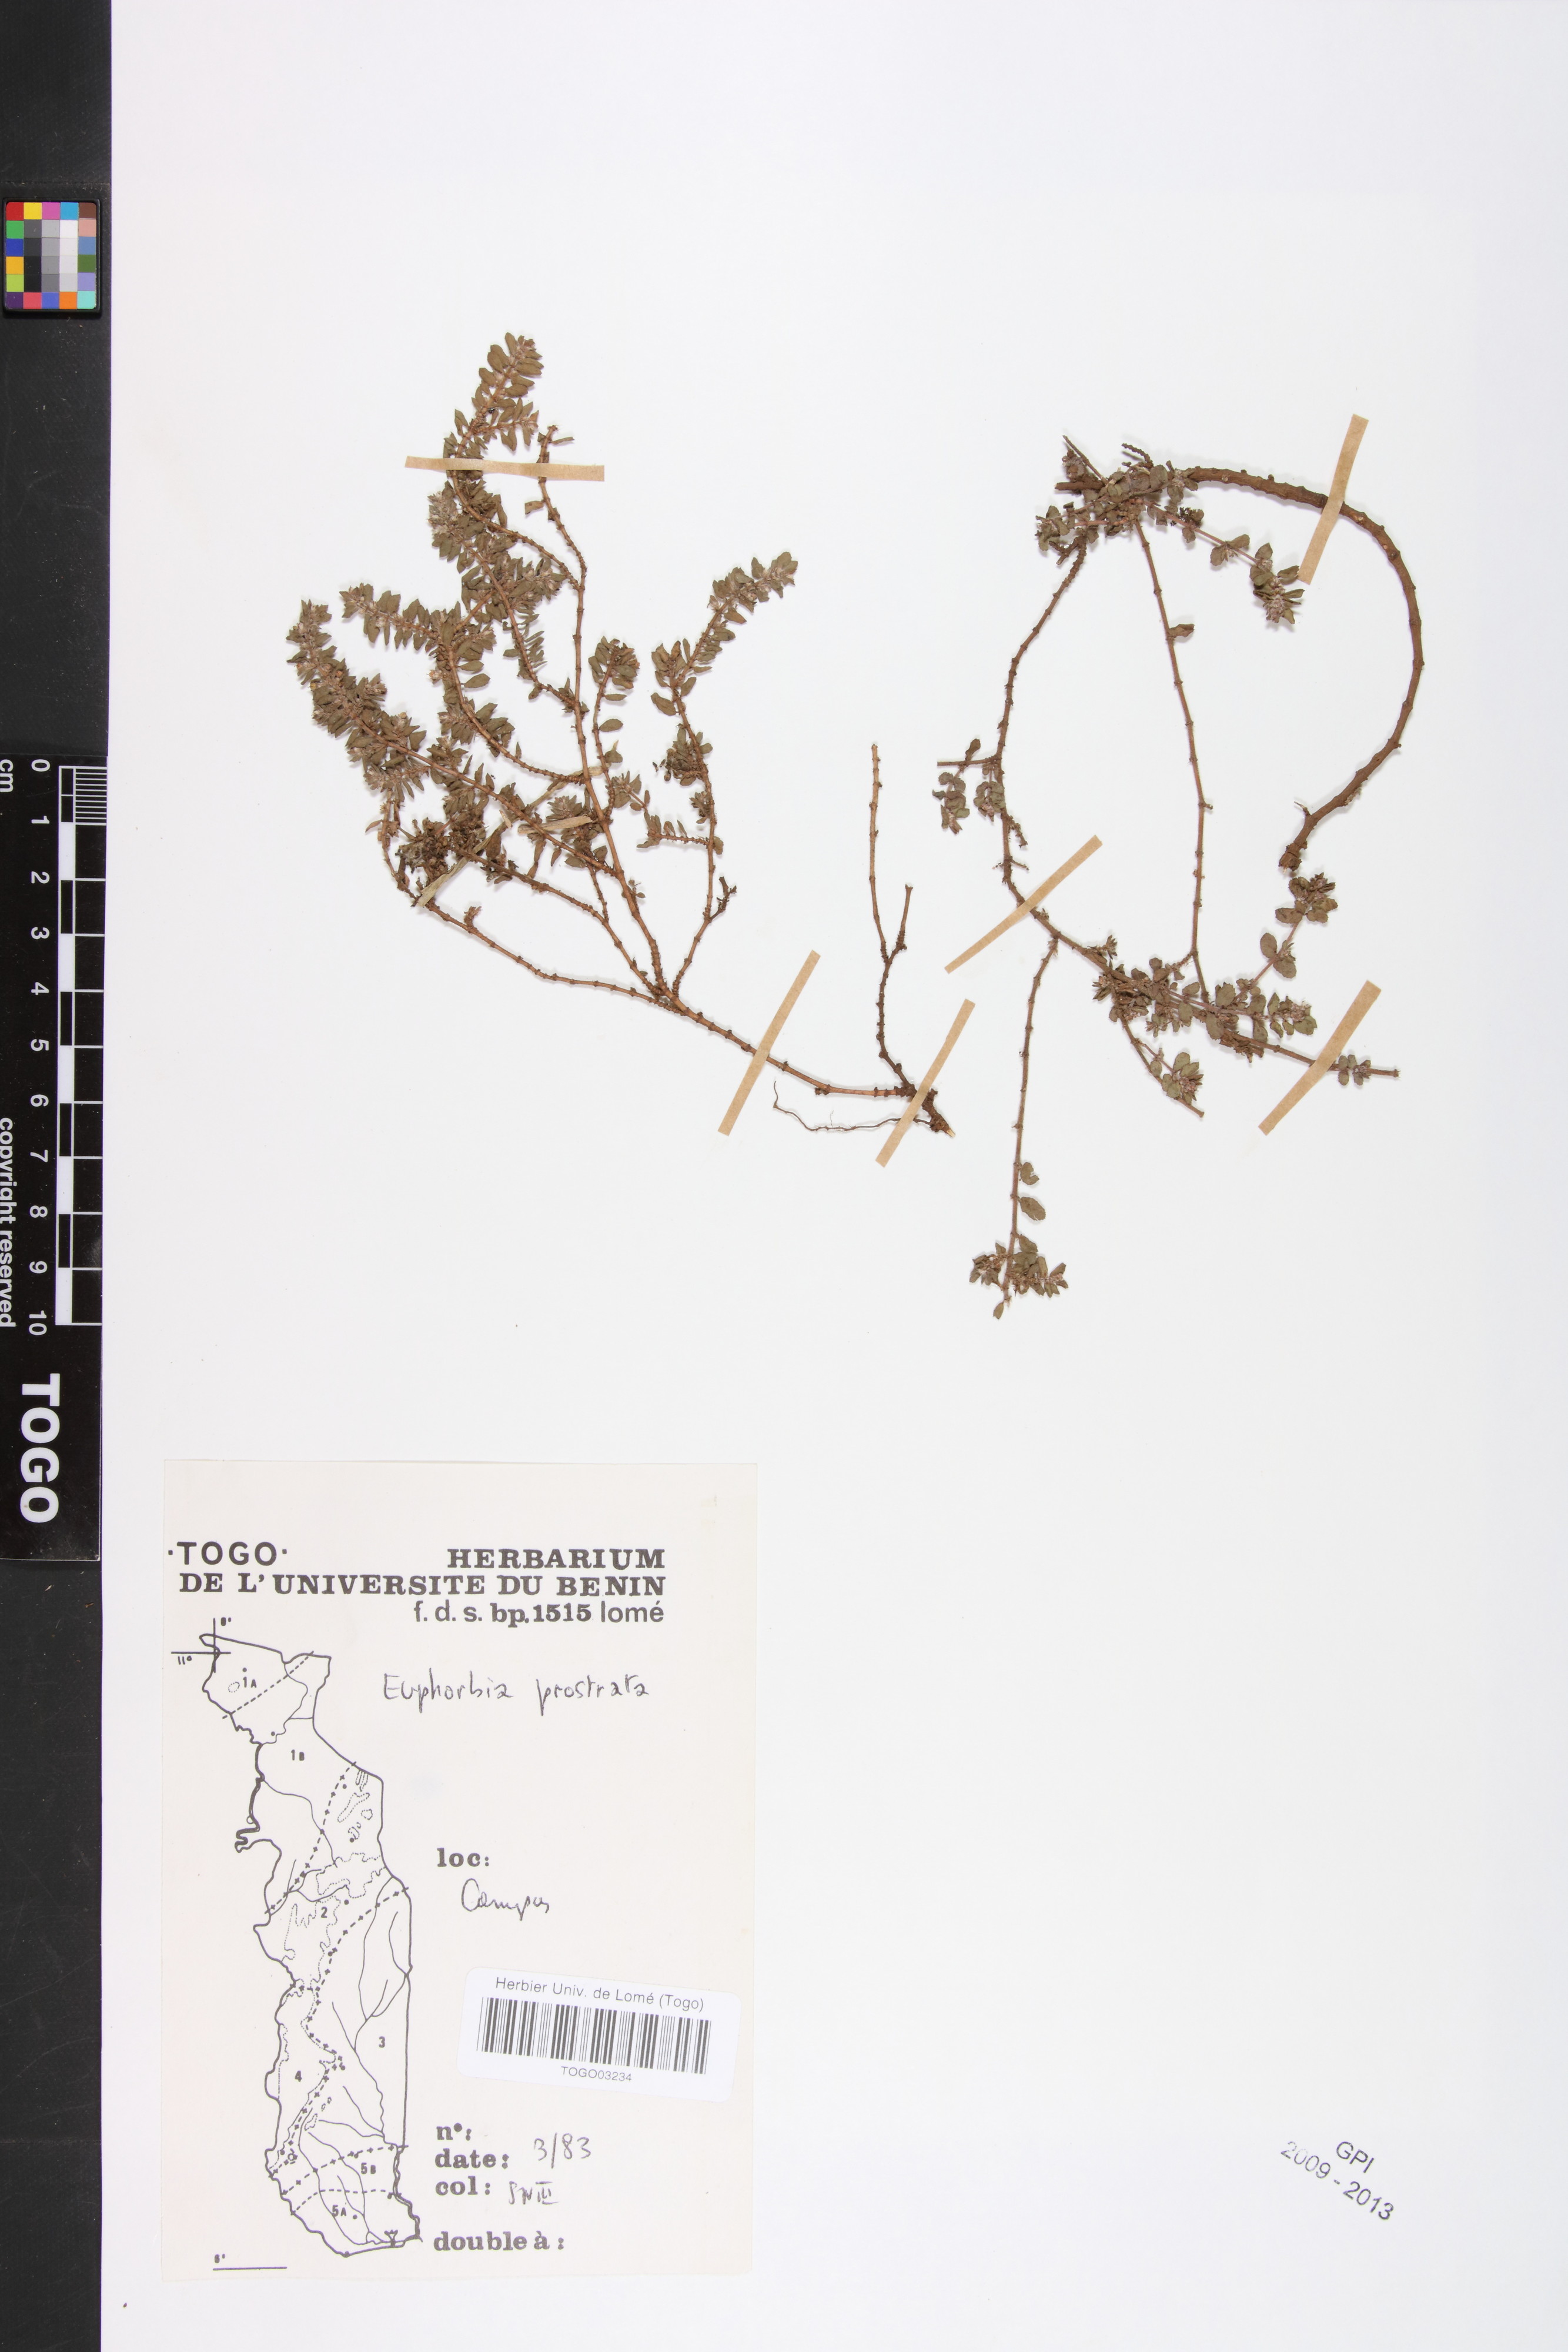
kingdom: Plantae
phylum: Tracheophyta
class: Magnoliopsida
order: Malpighiales
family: Euphorbiaceae
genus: Euphorbia
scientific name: Euphorbia prostrata
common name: Prostrate sandmat
